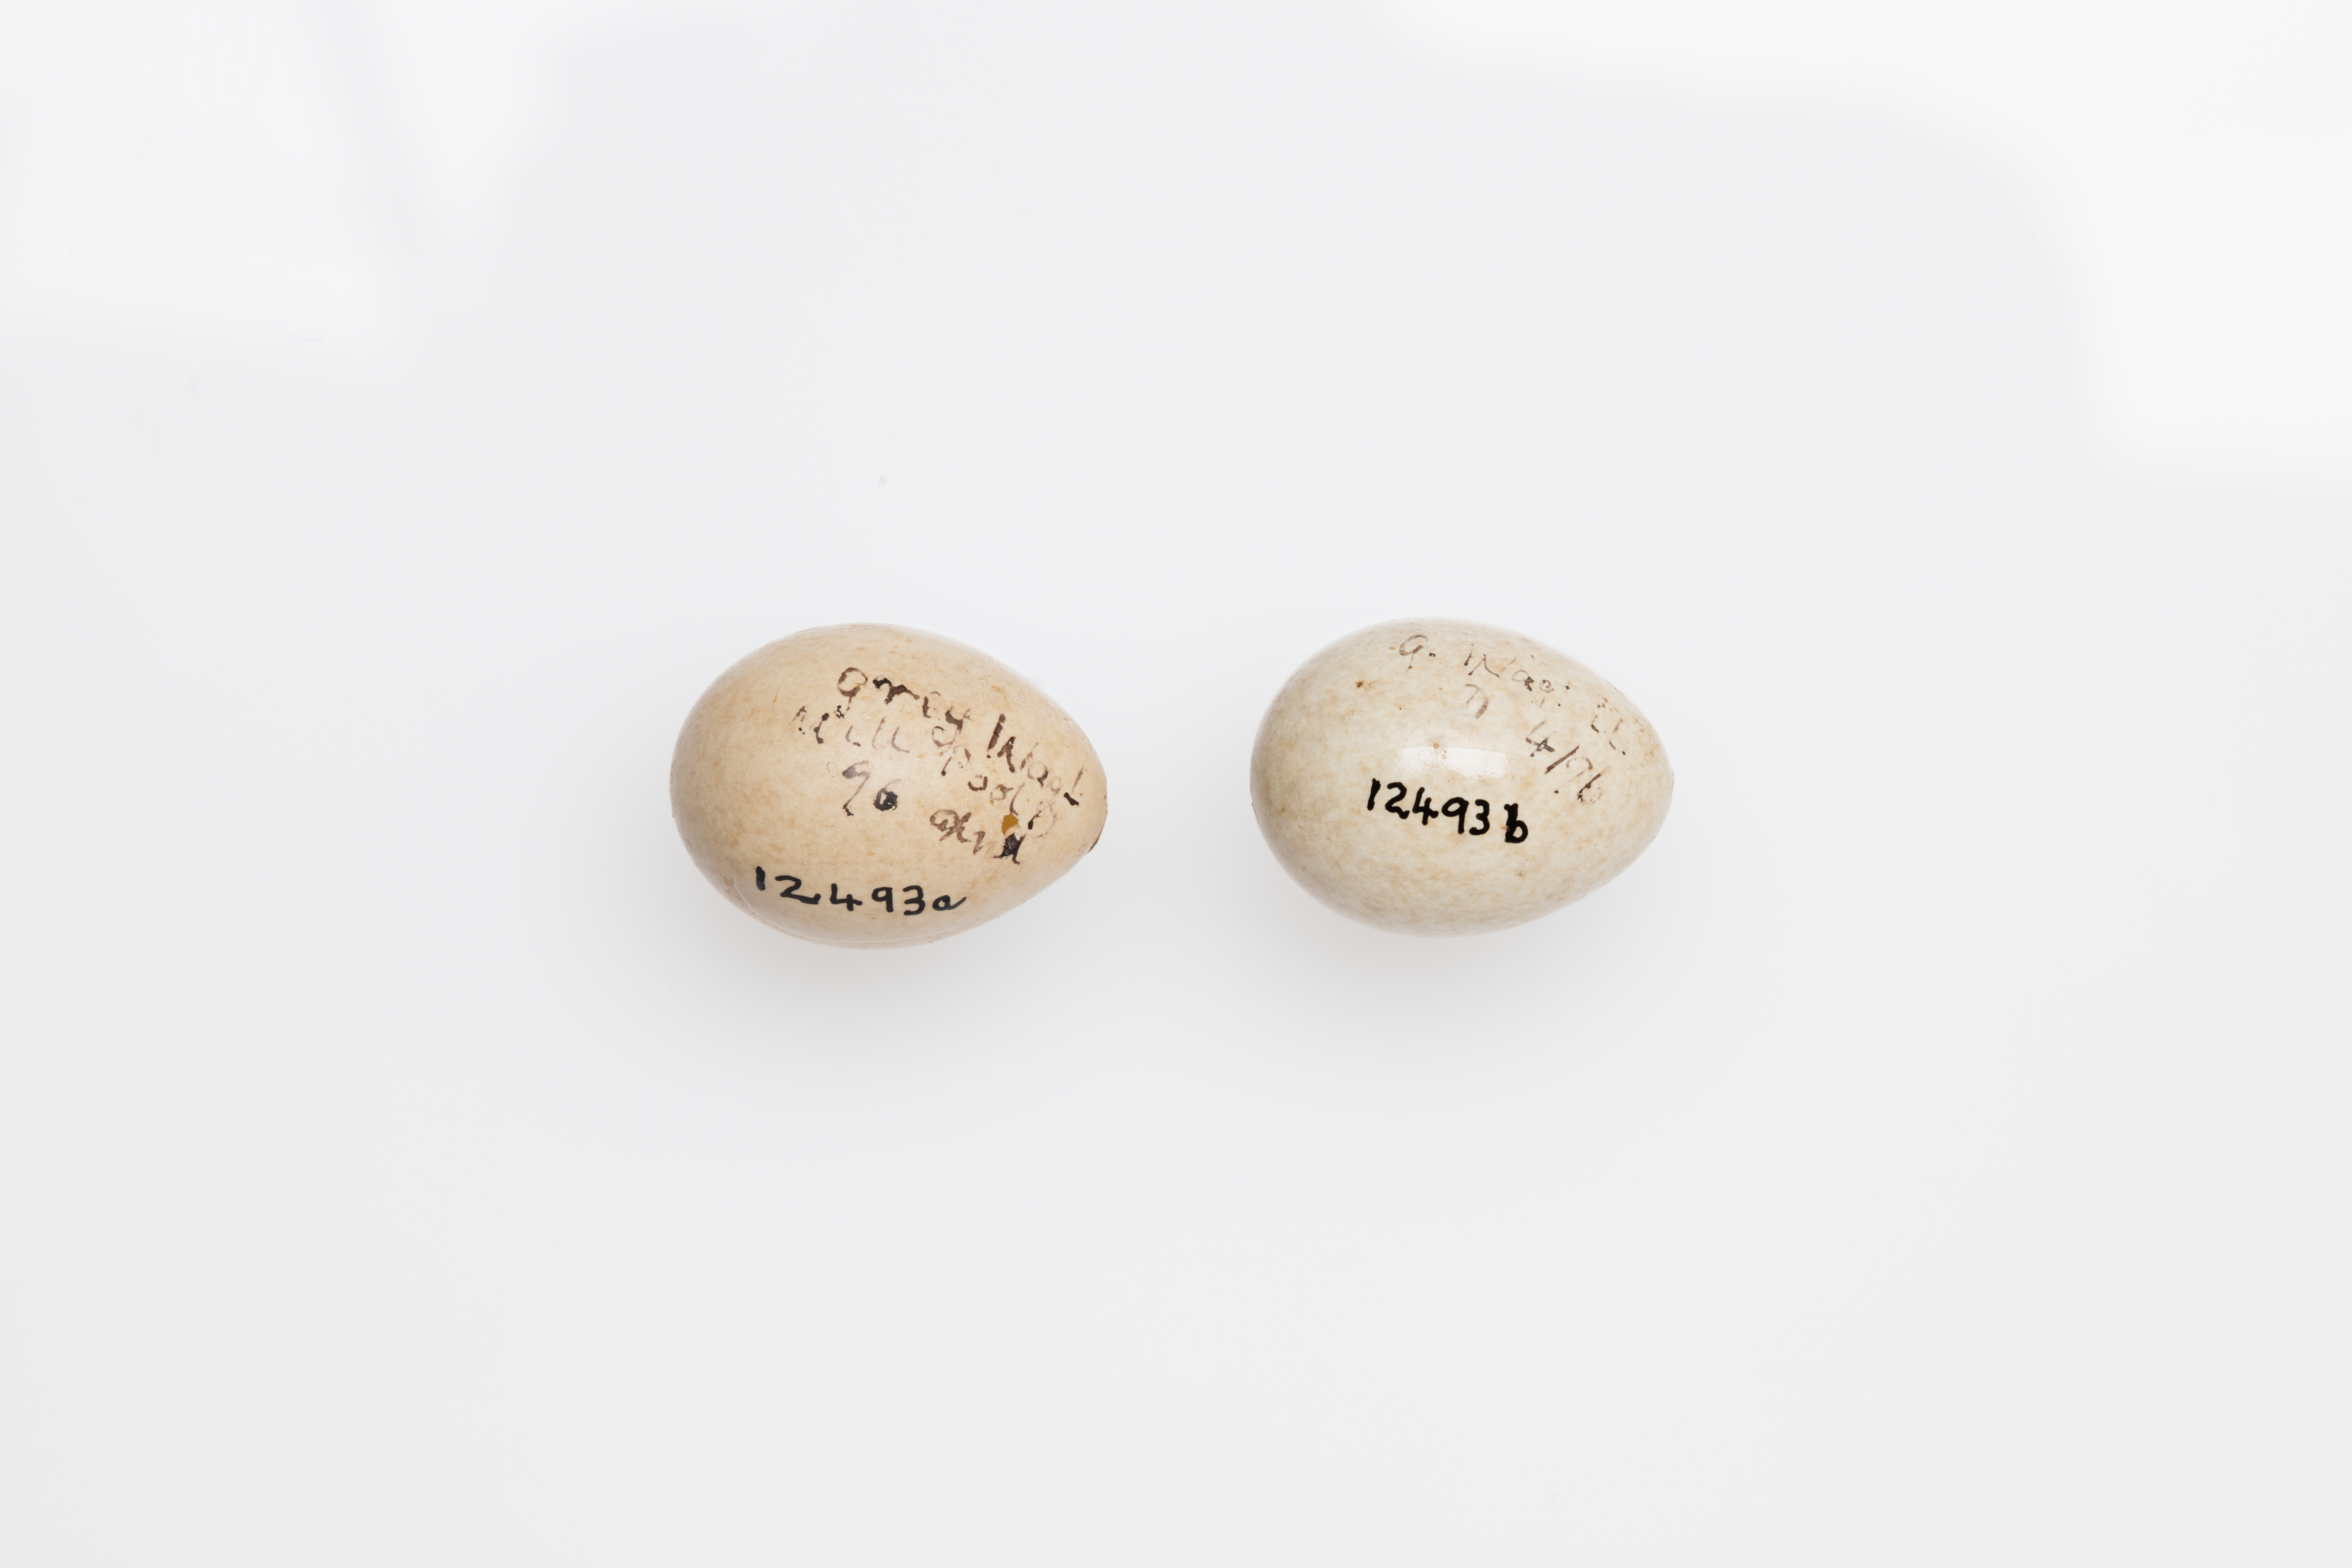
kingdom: Animalia
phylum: Chordata
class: Aves
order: Passeriformes
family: Motacillidae
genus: Motacilla
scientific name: Motacilla cinerea
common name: Grey wagtail
